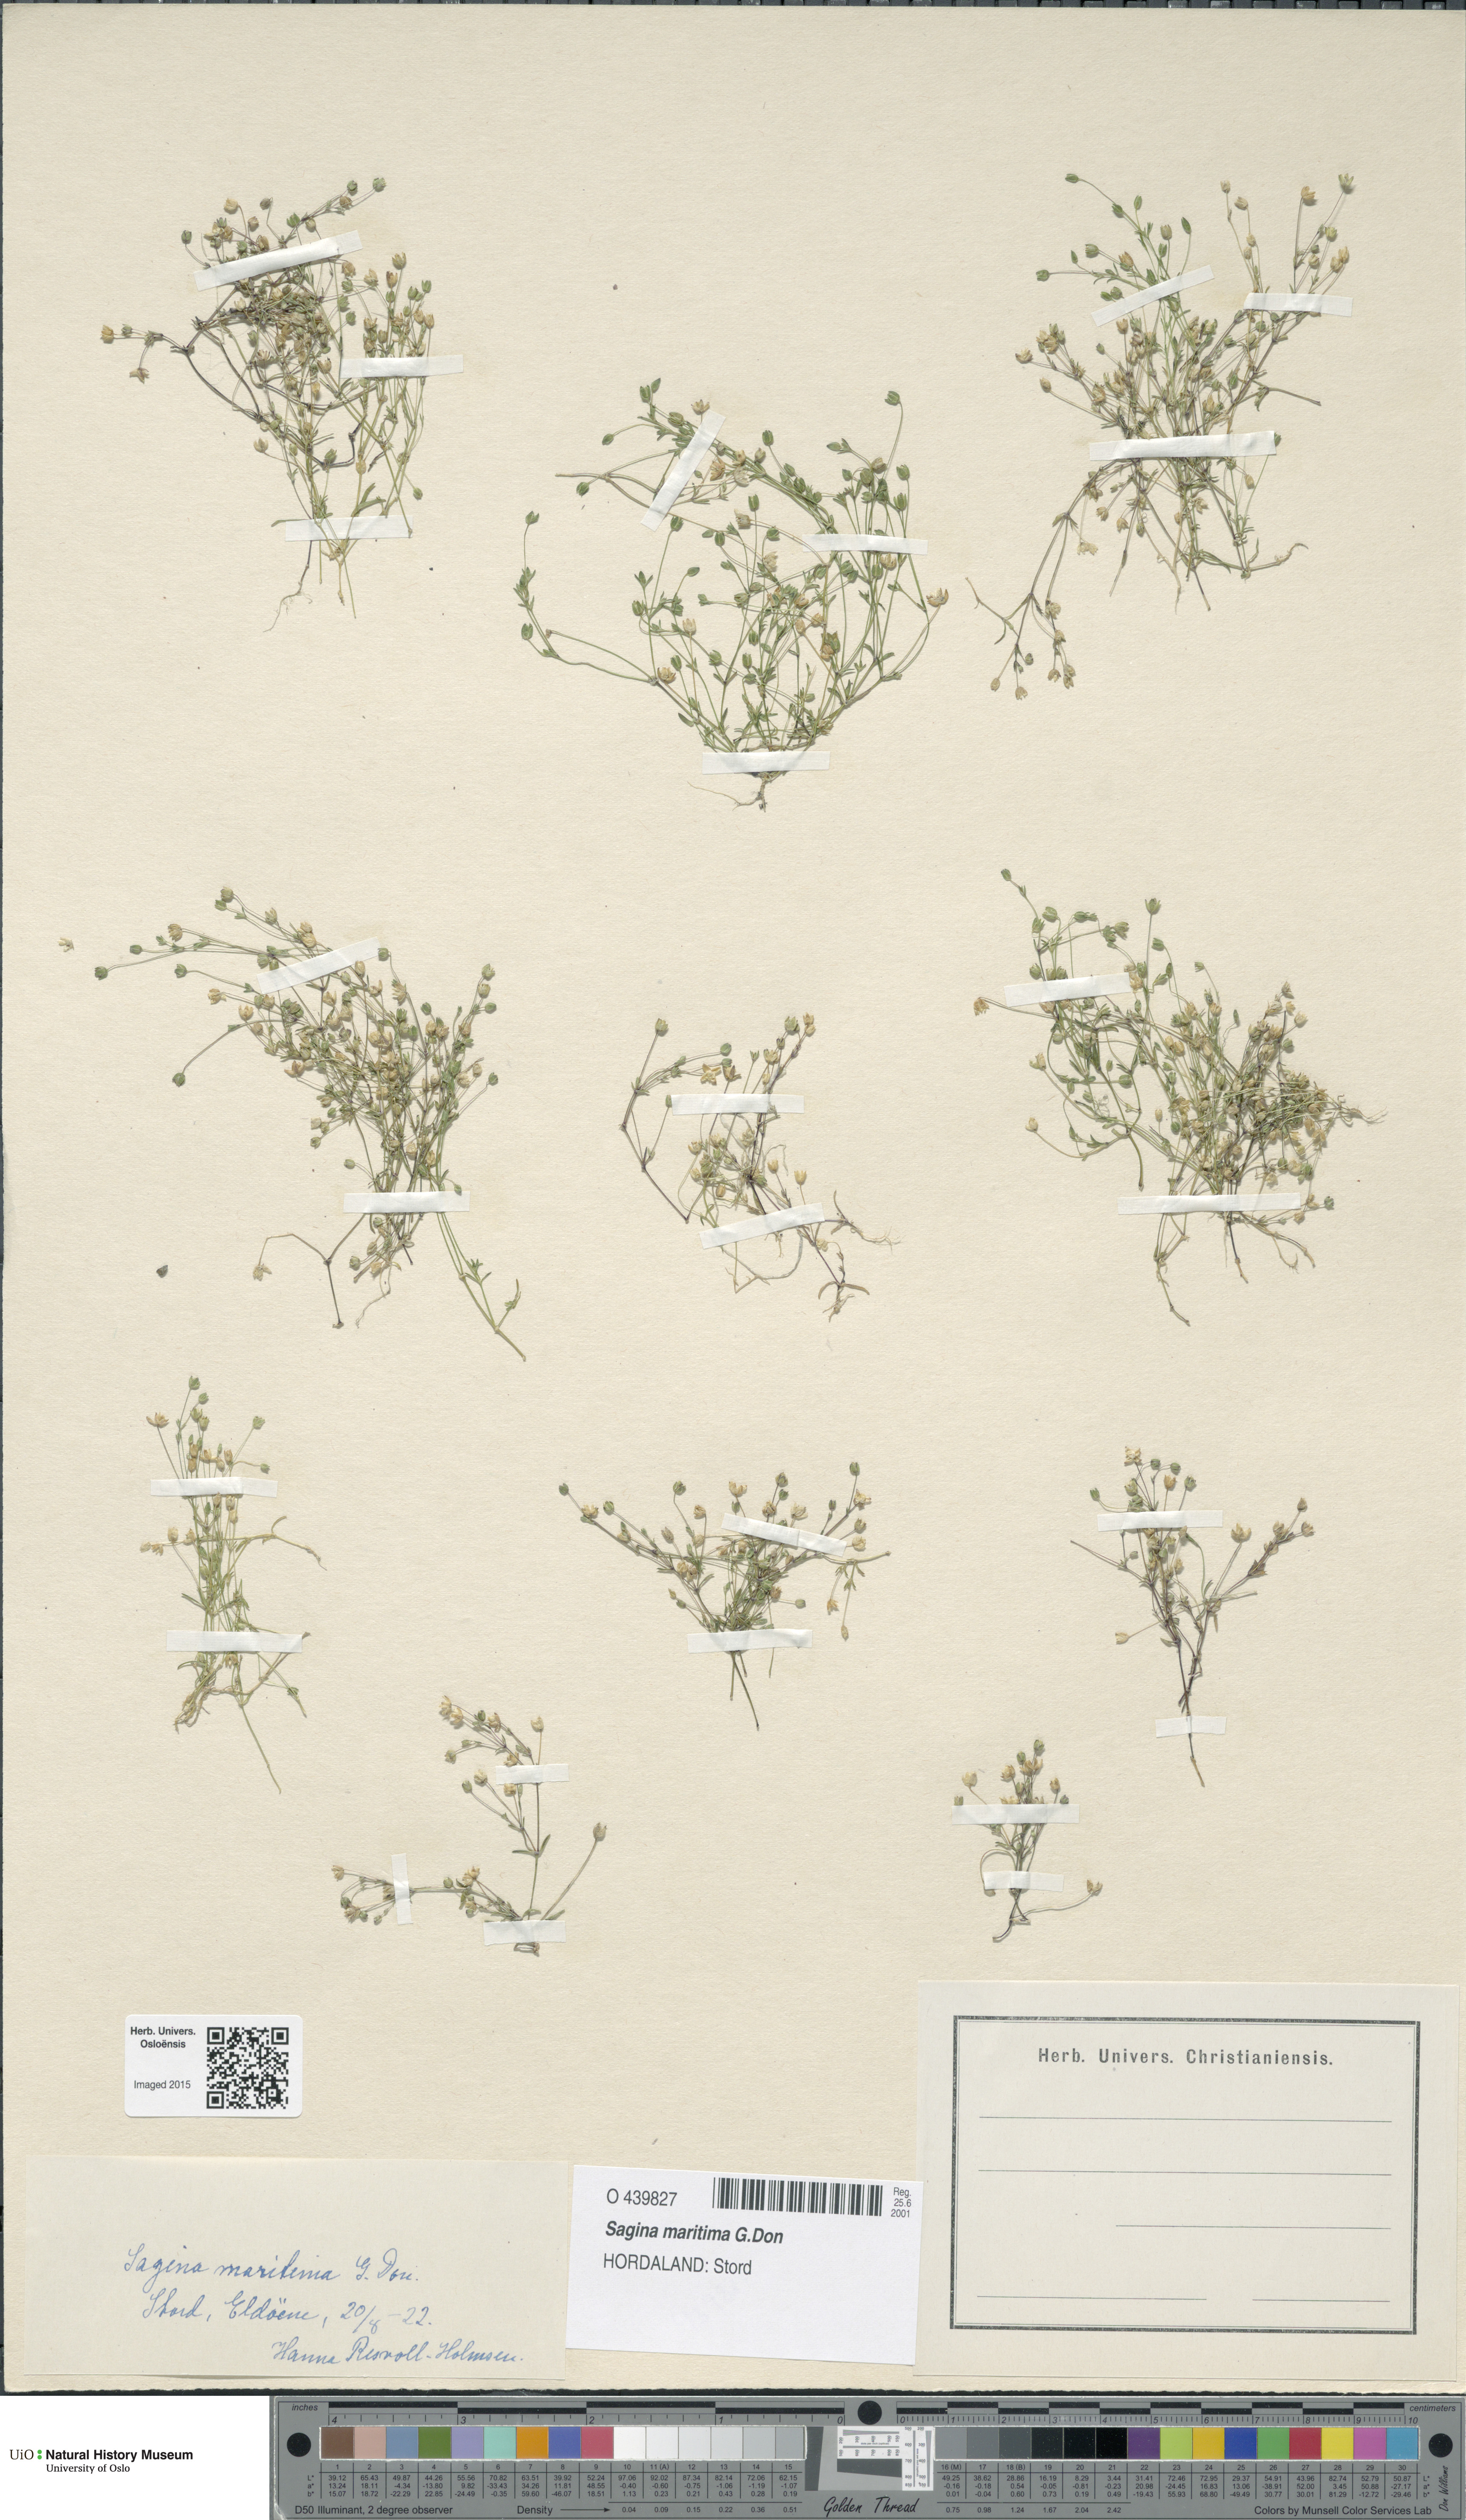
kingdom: Plantae
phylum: Tracheophyta
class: Magnoliopsida
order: Caryophyllales
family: Caryophyllaceae
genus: Sagina
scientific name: Sagina maritima
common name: Sea pearlwort
